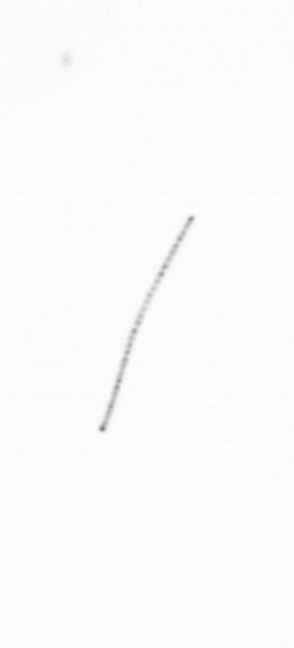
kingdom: Chromista
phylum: Ochrophyta
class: Bacillariophyceae
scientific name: Bacillariophyceae
